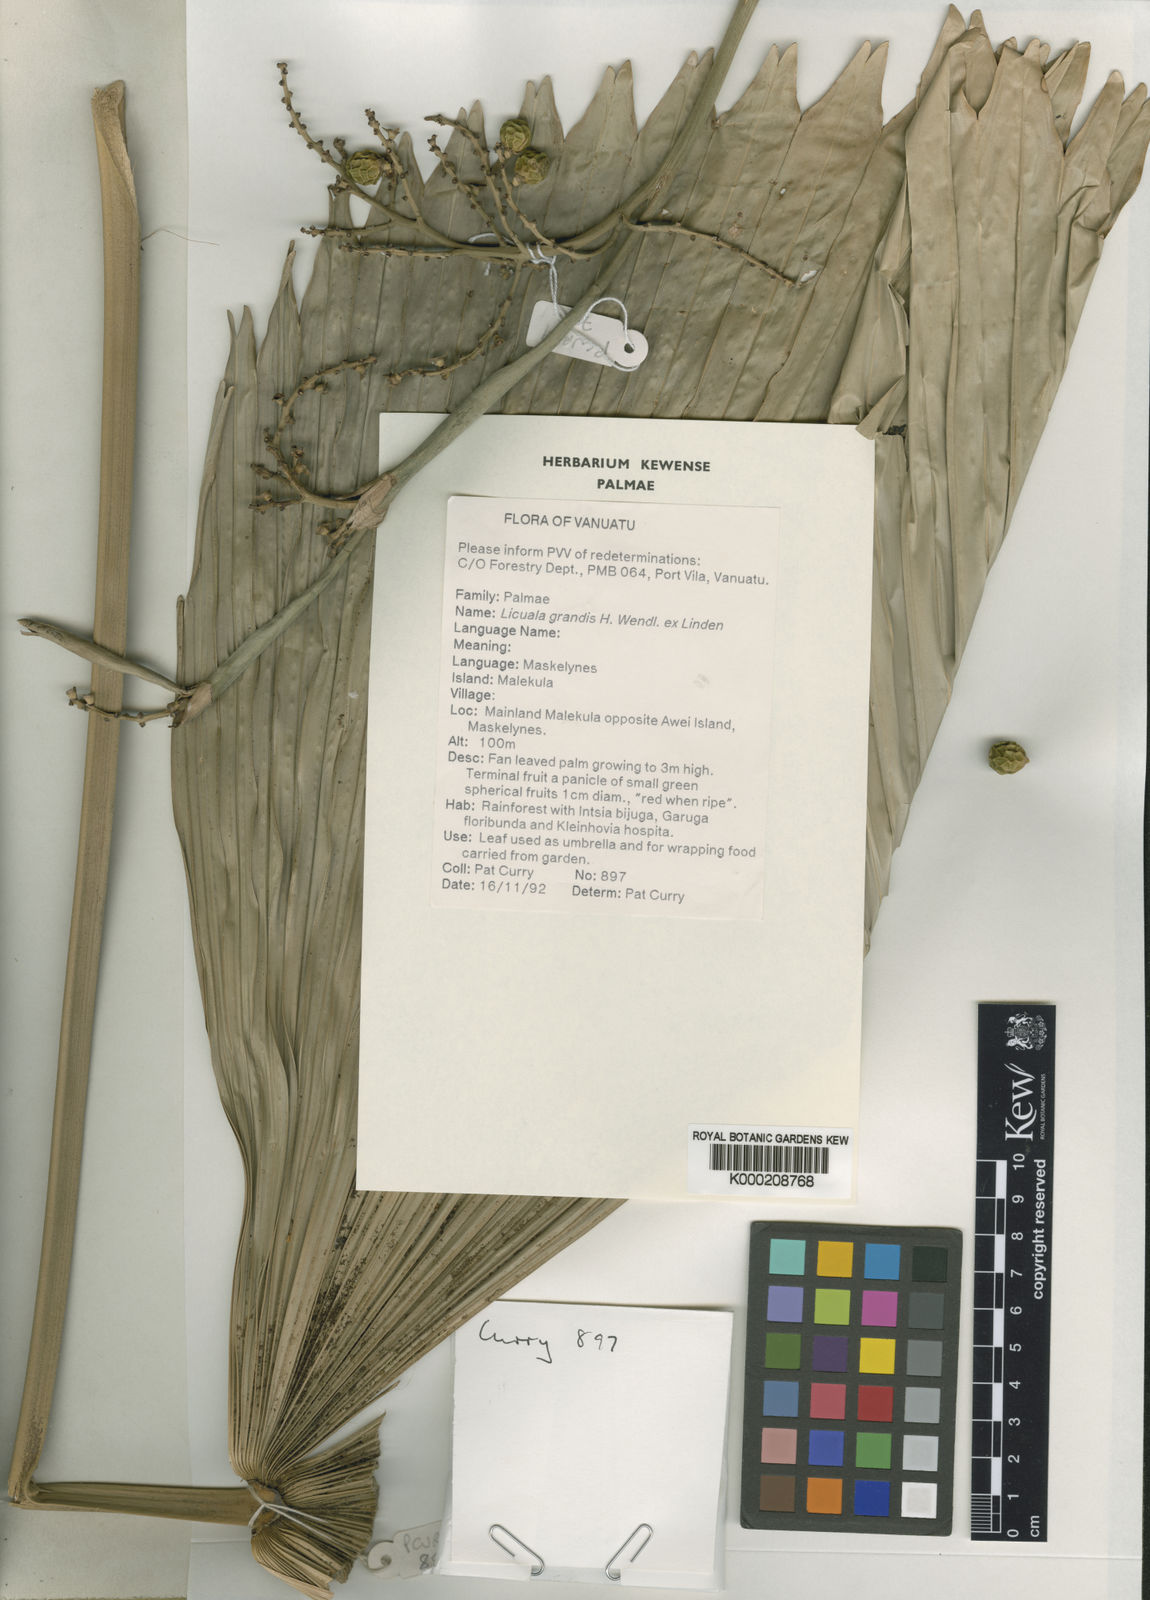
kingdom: Plantae
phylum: Tracheophyta
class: Liliopsida
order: Arecales
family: Arecaceae
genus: Licuala
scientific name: Licuala grandis
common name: Ruffled fan palm
